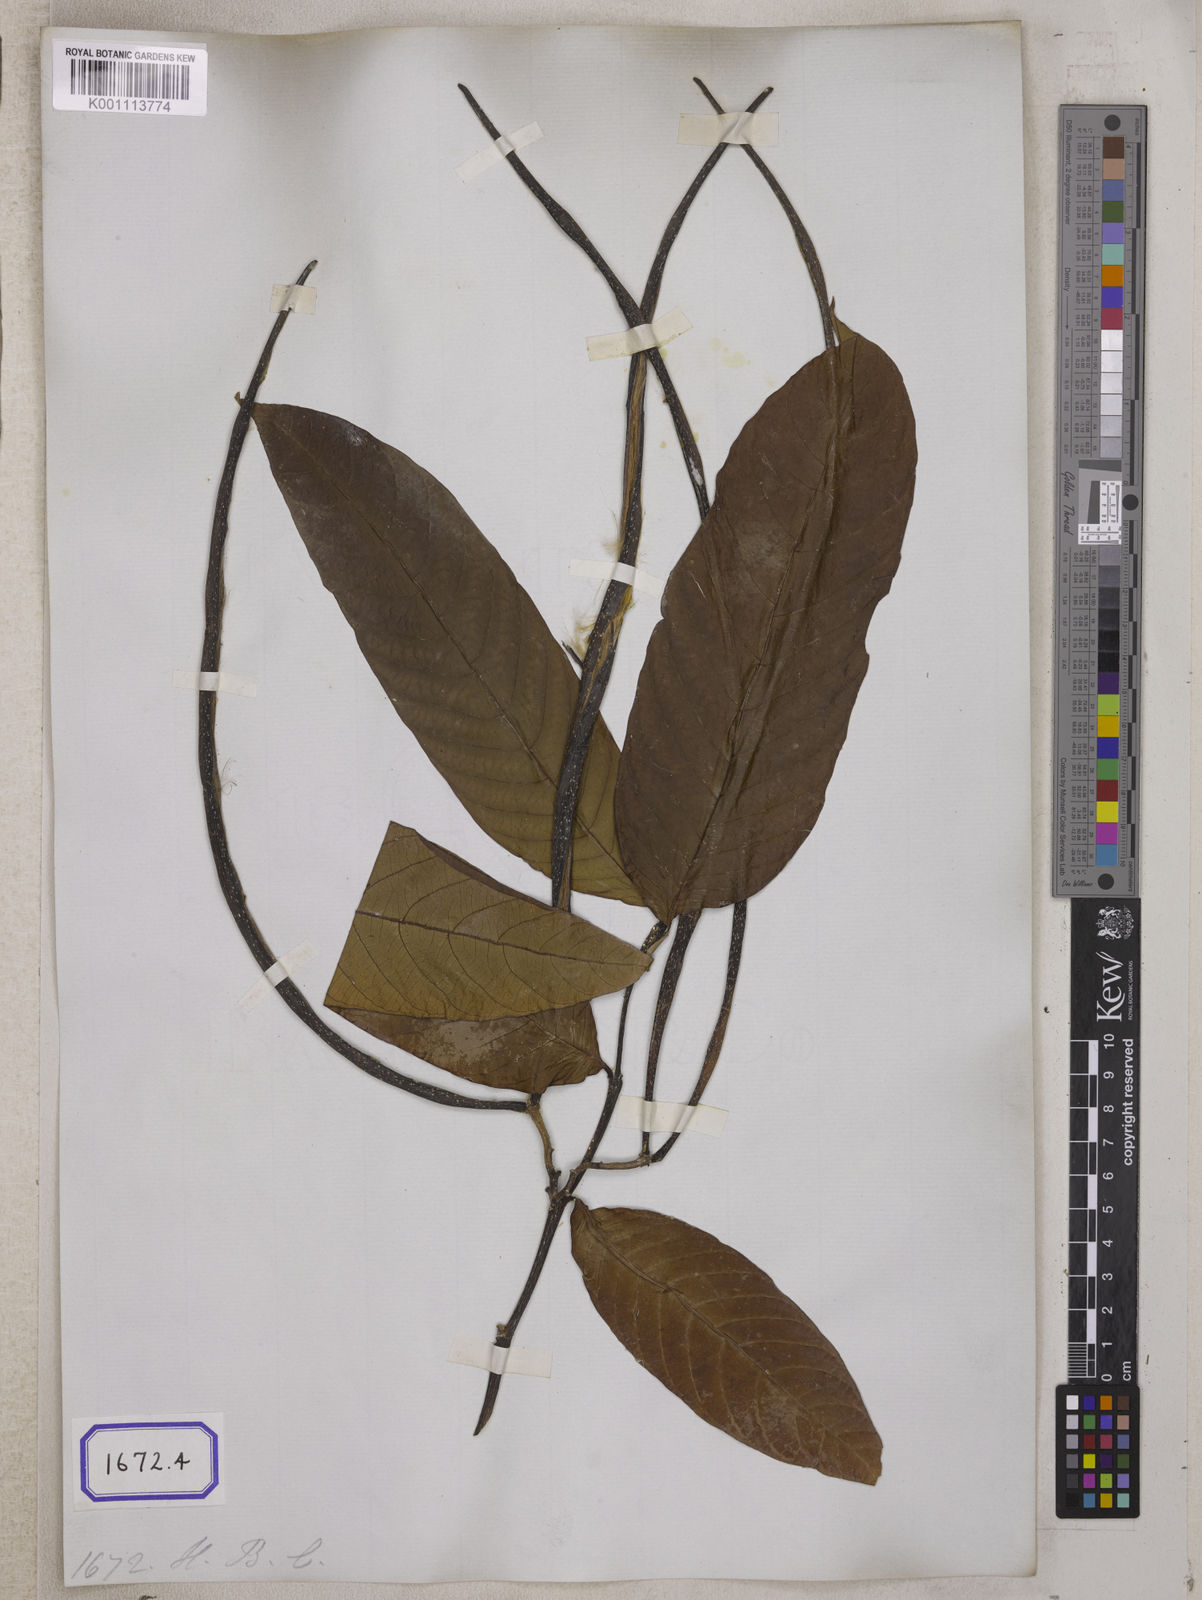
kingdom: Plantae
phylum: Tracheophyta
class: Magnoliopsida
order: Gentianales
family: Apocynaceae
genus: Holarrhena
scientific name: Holarrhena pubescens
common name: Bitter oleander
